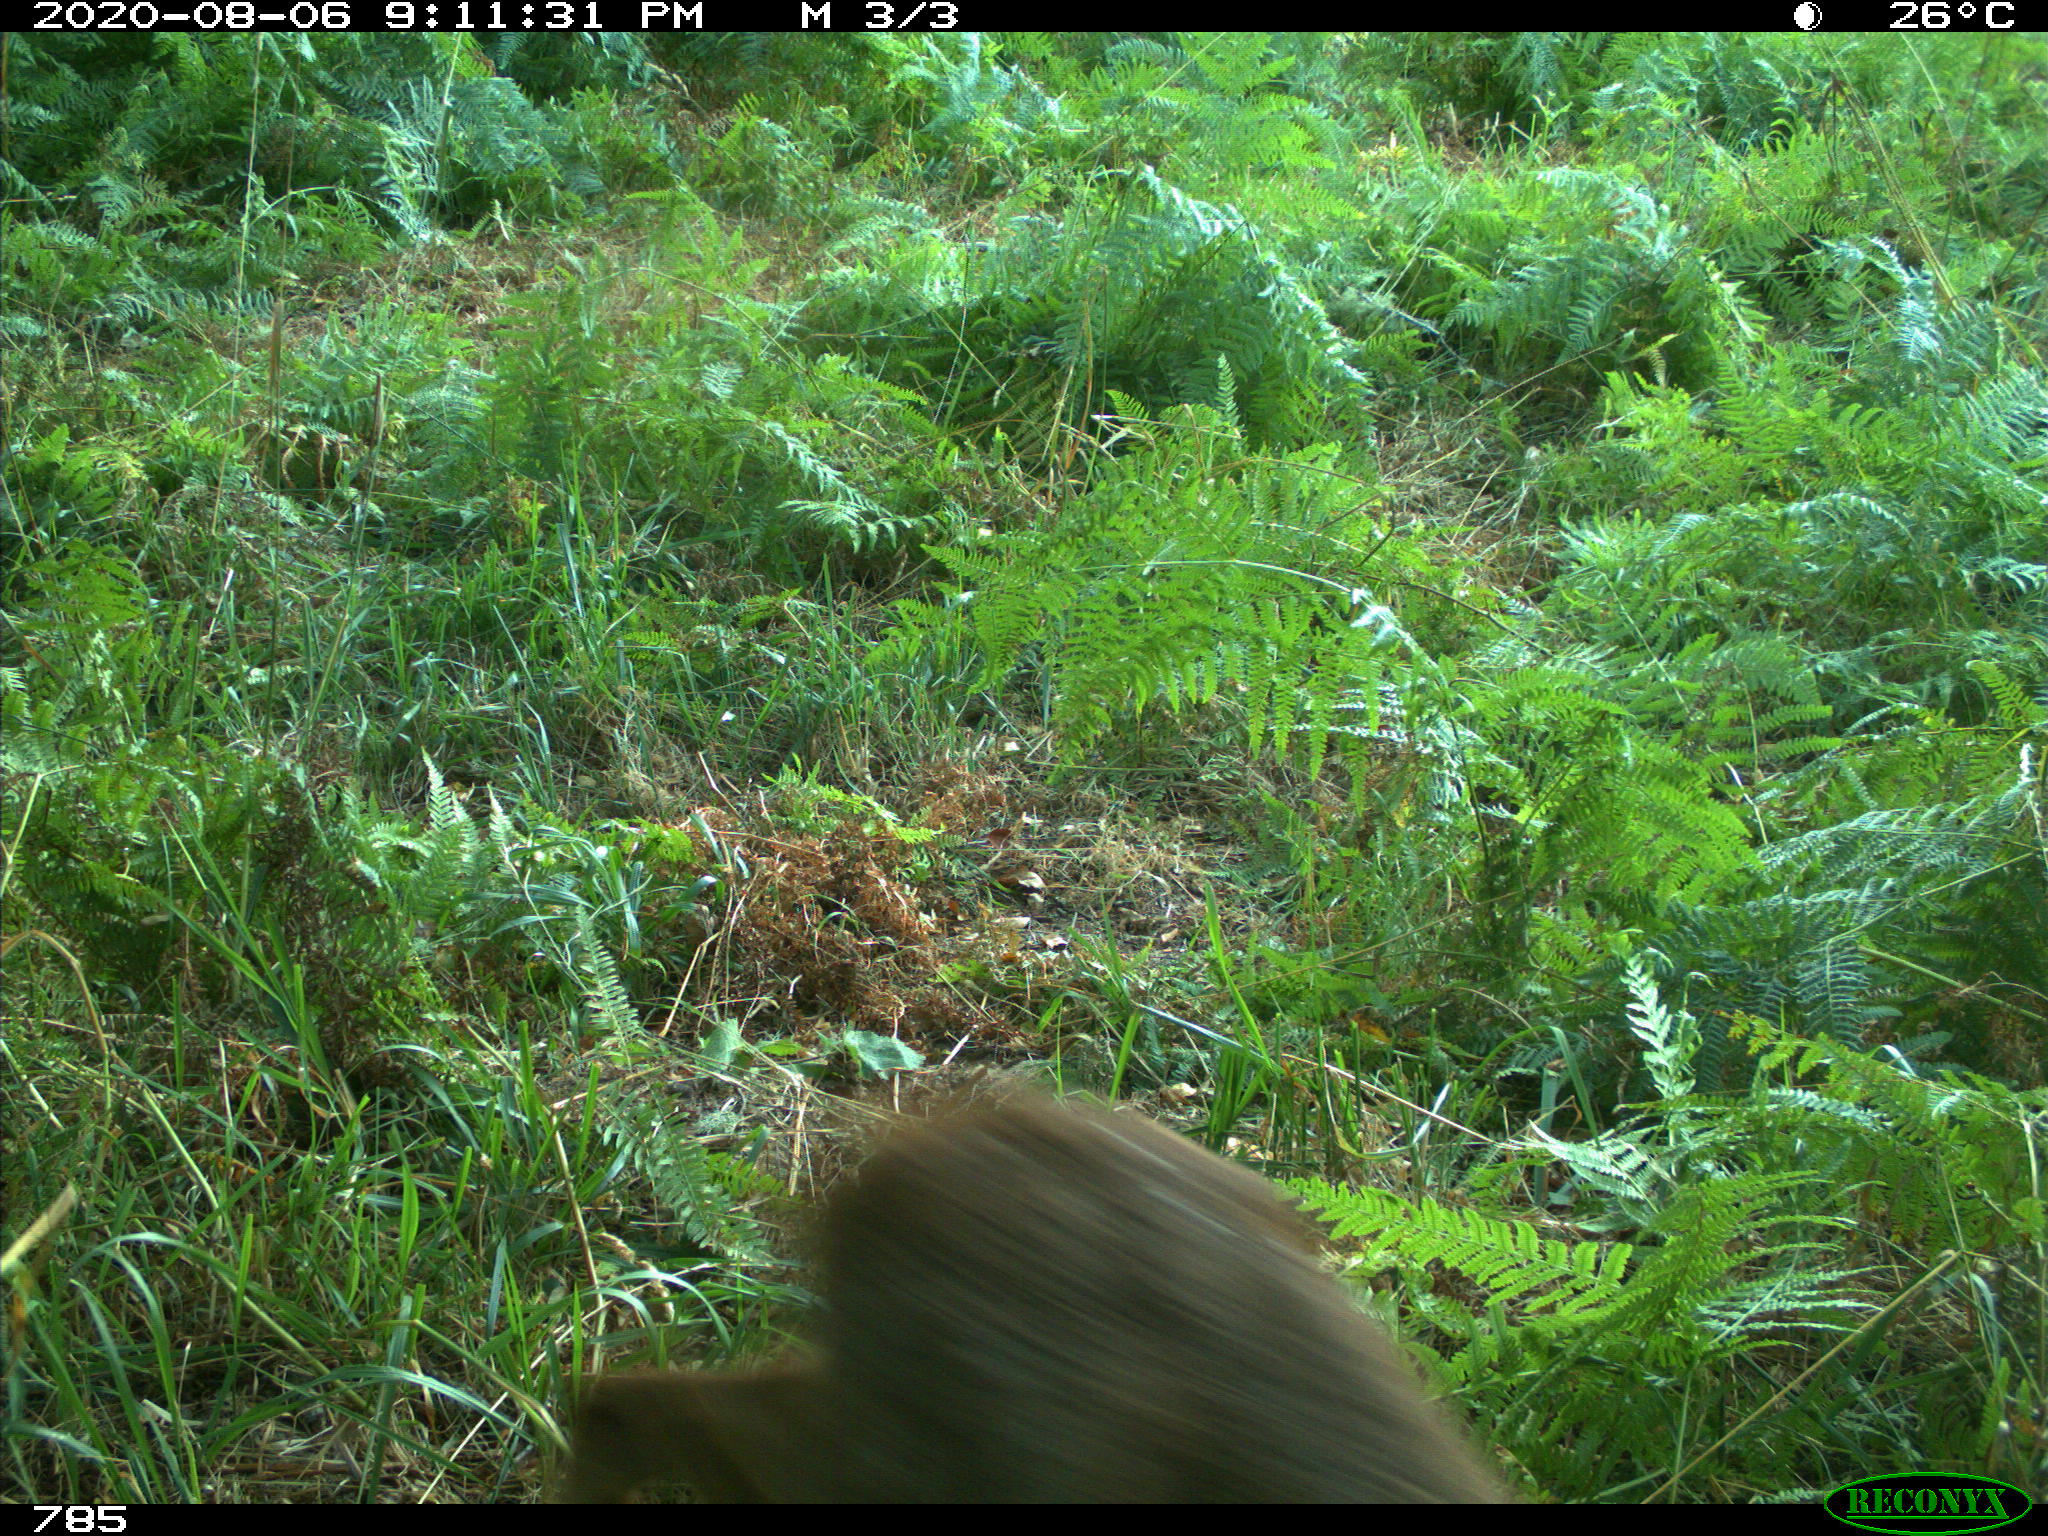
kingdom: Animalia
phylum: Chordata
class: Mammalia
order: Artiodactyla
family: Cervidae
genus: Capreolus
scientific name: Capreolus capreolus
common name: Western roe deer
